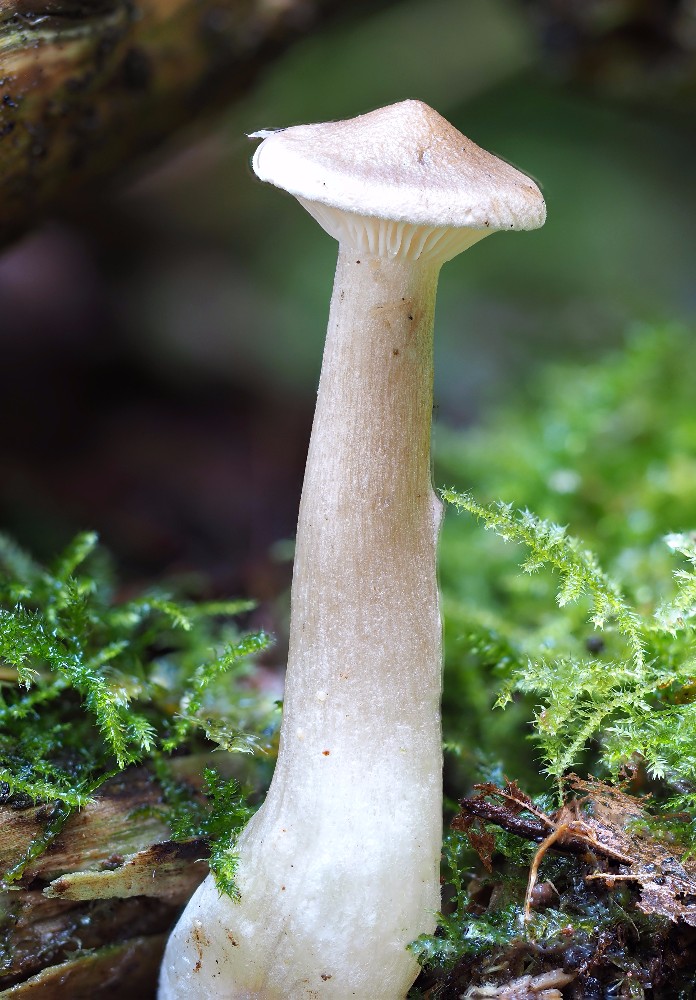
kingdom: Fungi
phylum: Basidiomycota
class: Agaricomycetes
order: Agaricales
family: Hygrophoraceae
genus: Ampulloclitocybe
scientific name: Ampulloclitocybe clavipes
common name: køllefod
